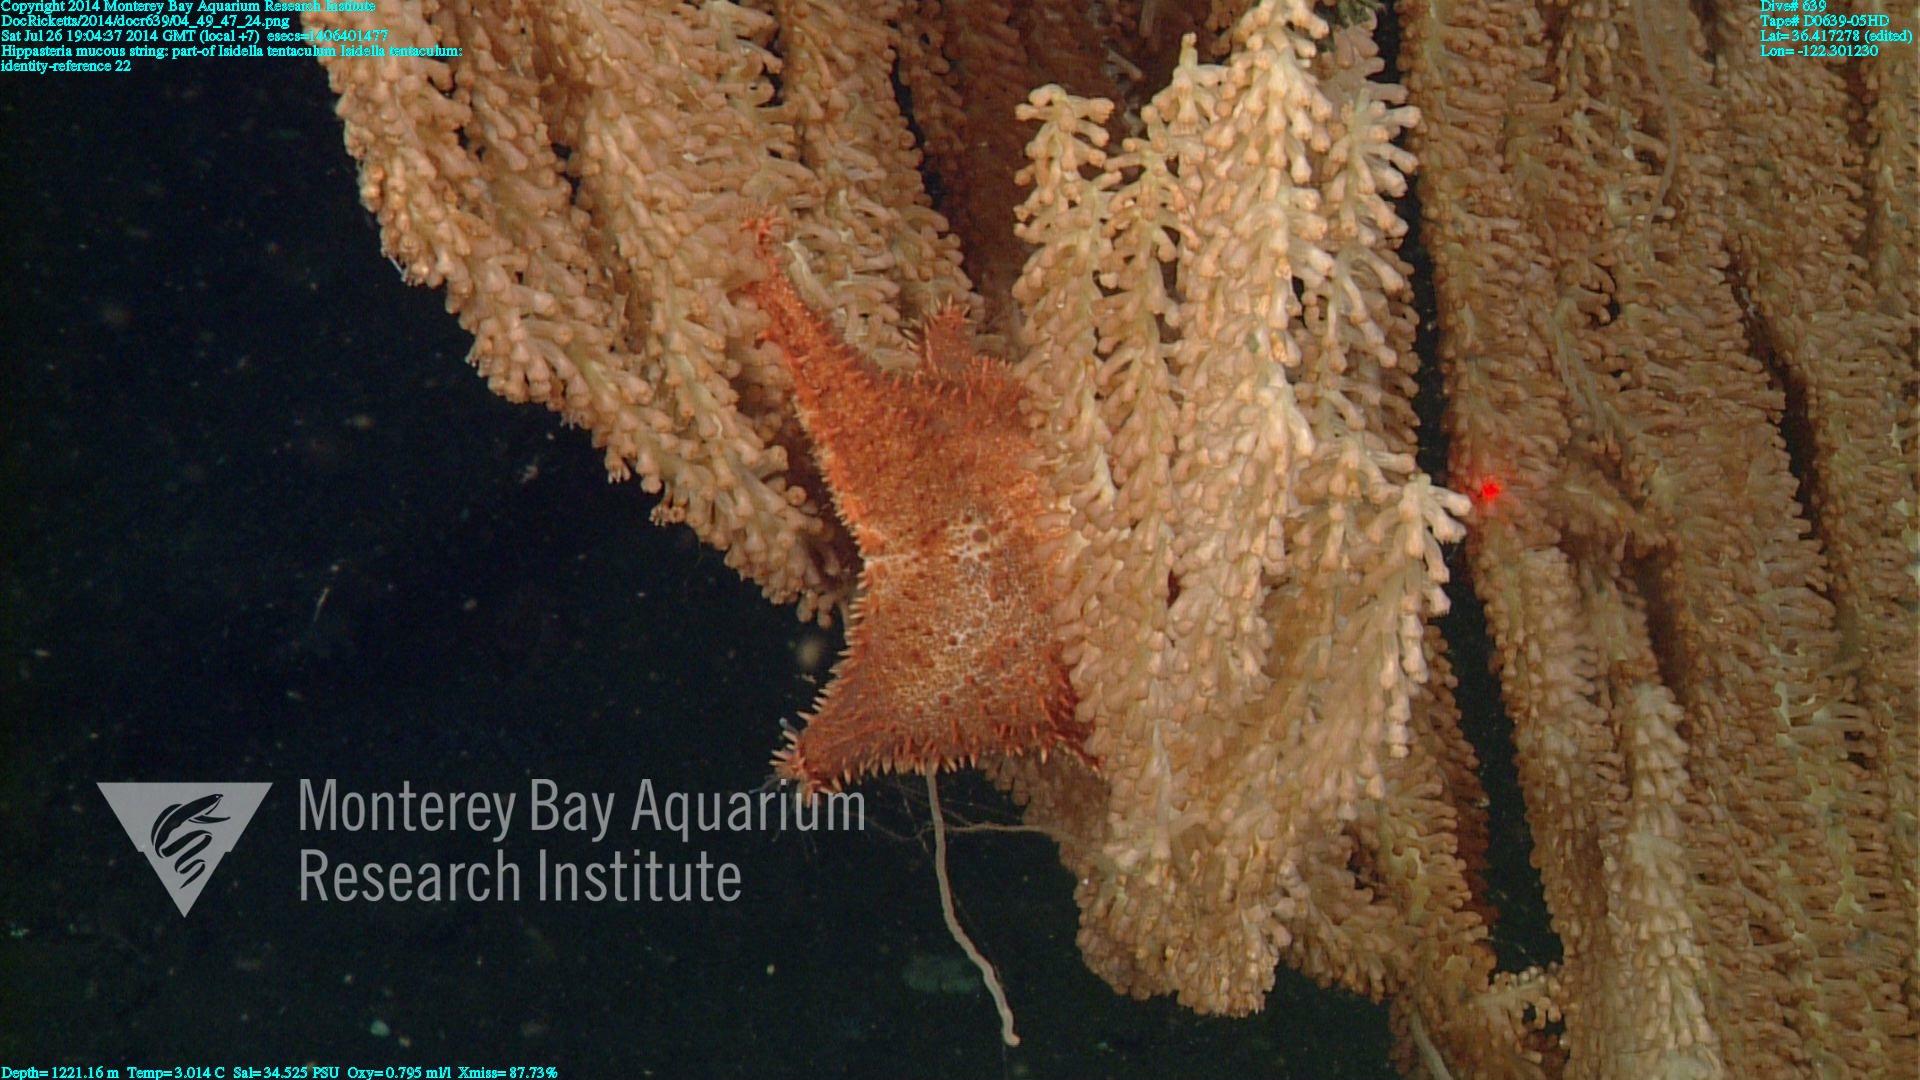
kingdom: Animalia
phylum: Cnidaria
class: Anthozoa
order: Scleralcyonacea
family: Keratoisididae
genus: Isidella
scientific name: Isidella tentaculum
